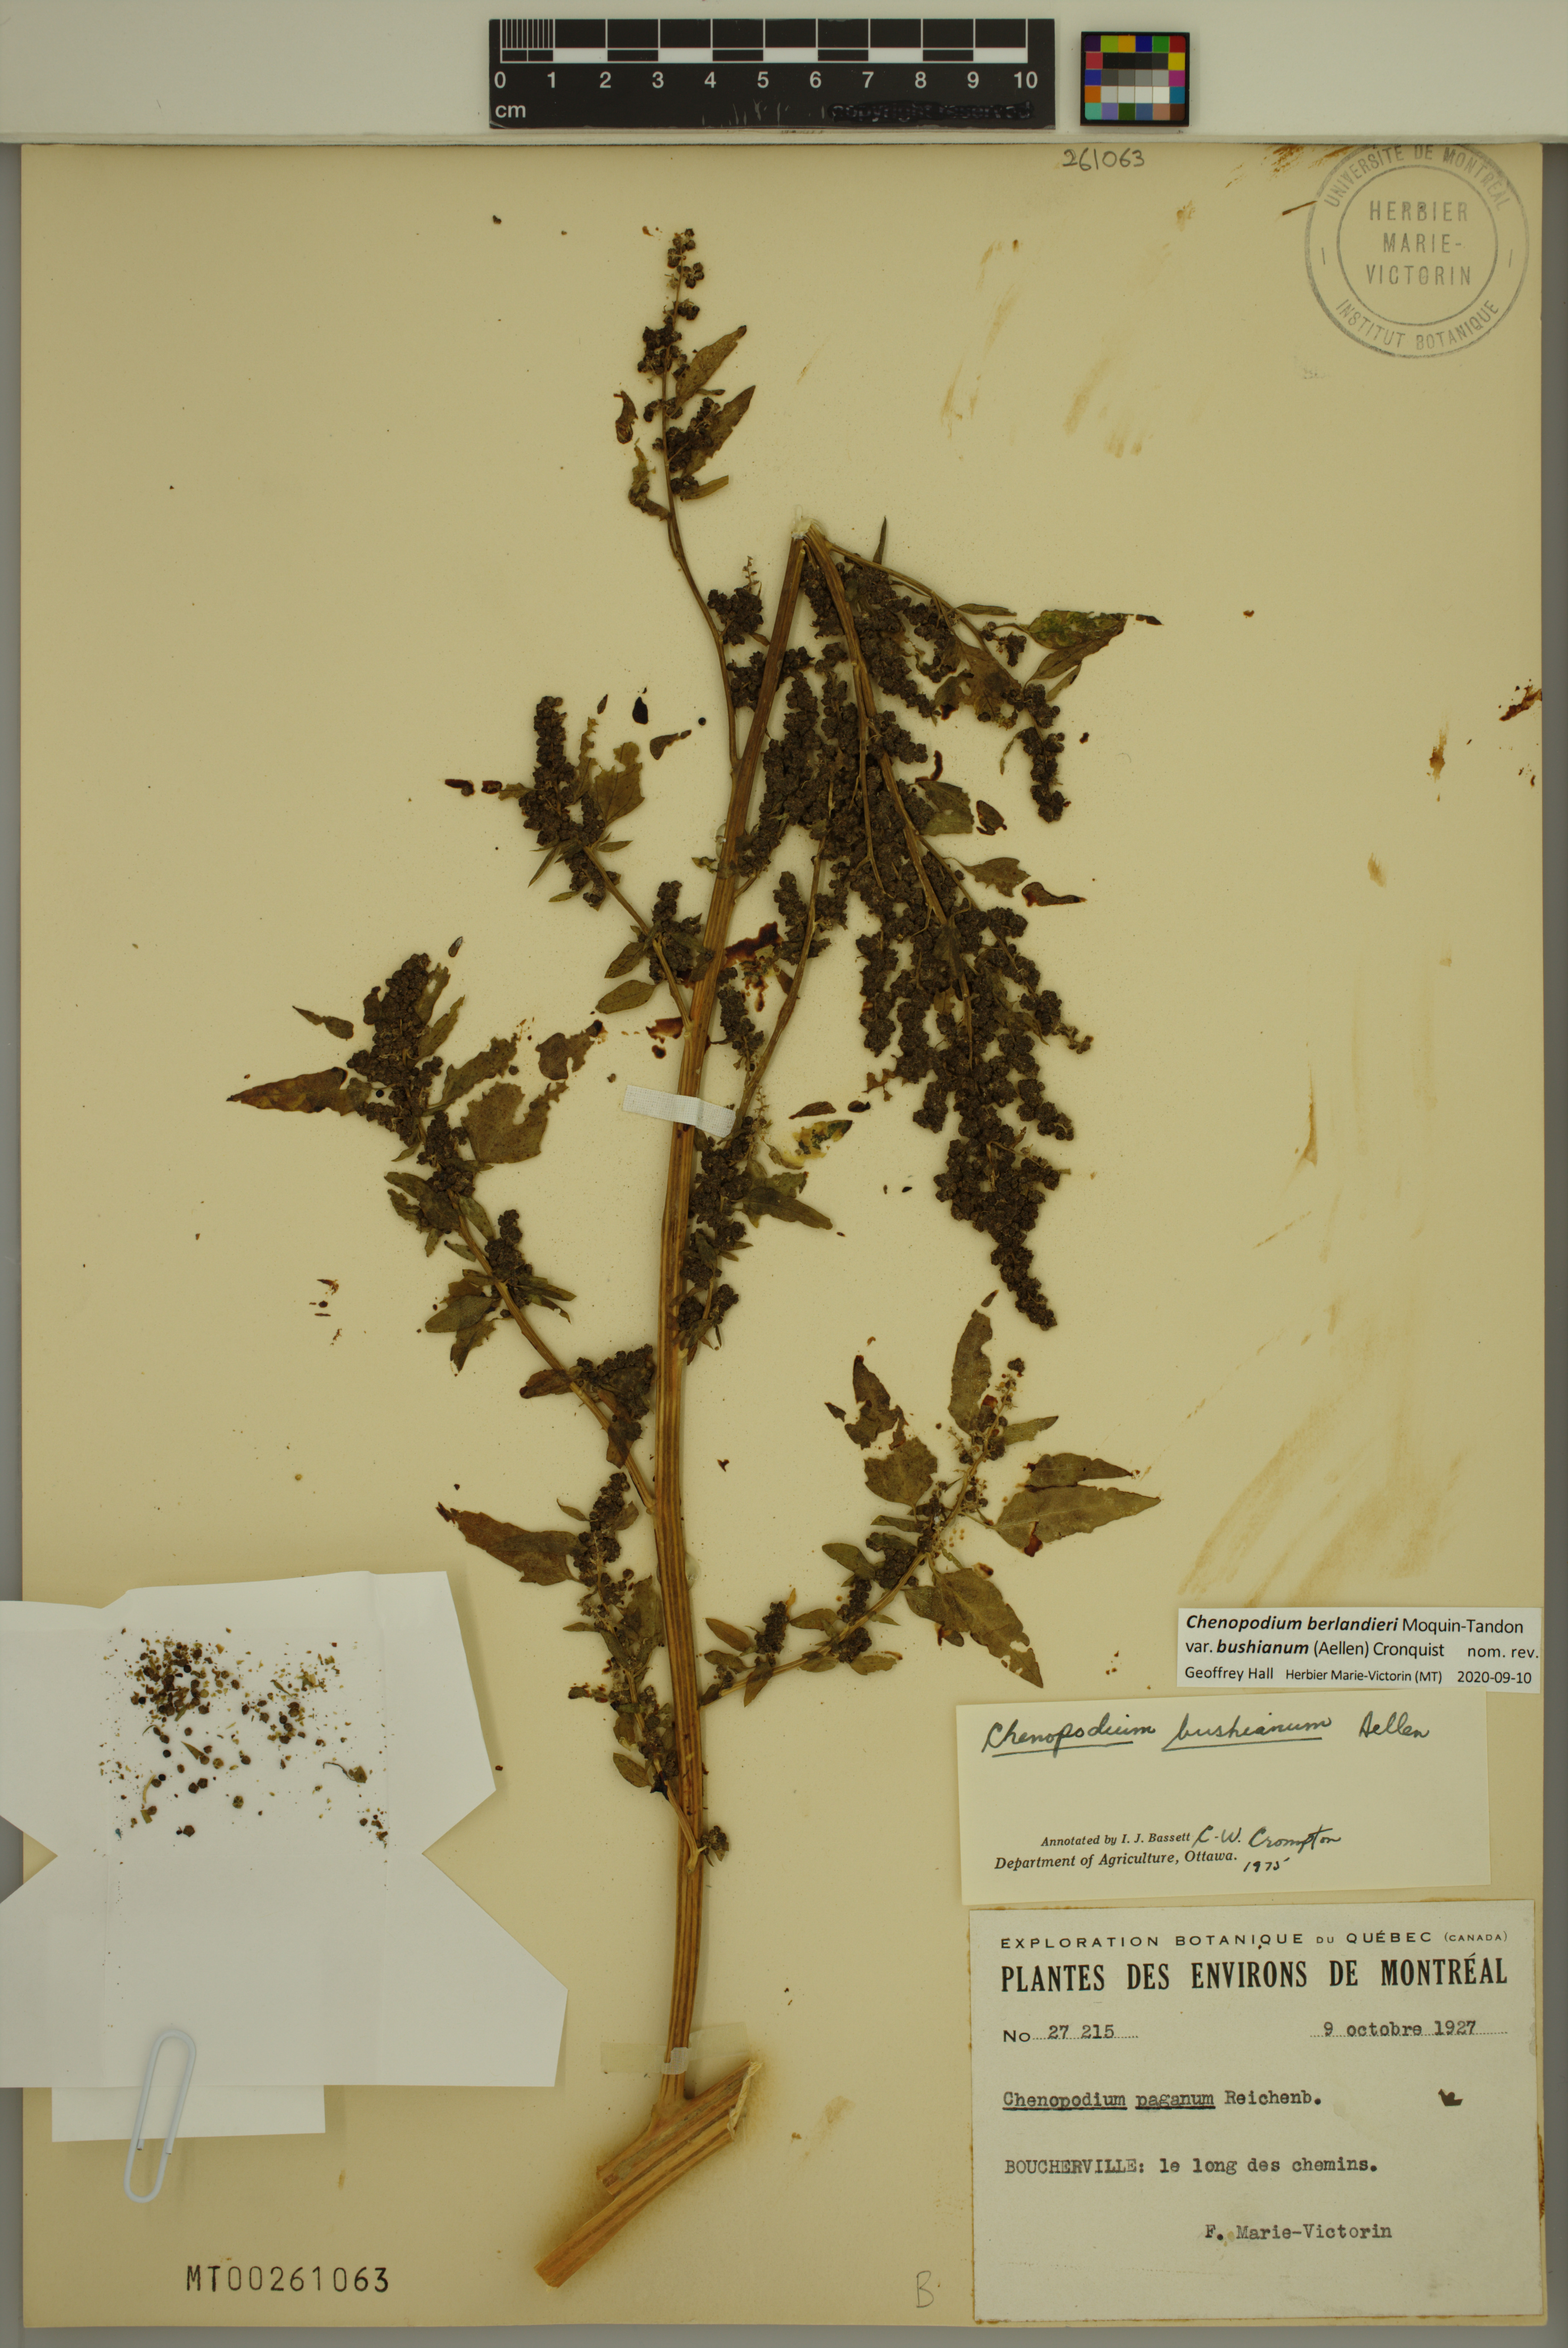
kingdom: Plantae
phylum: Tracheophyta
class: Magnoliopsida
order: Caryophyllales
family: Amaranthaceae
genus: Chenopodium
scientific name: Chenopodium berlandieri
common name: Pit-seed goosefoot
